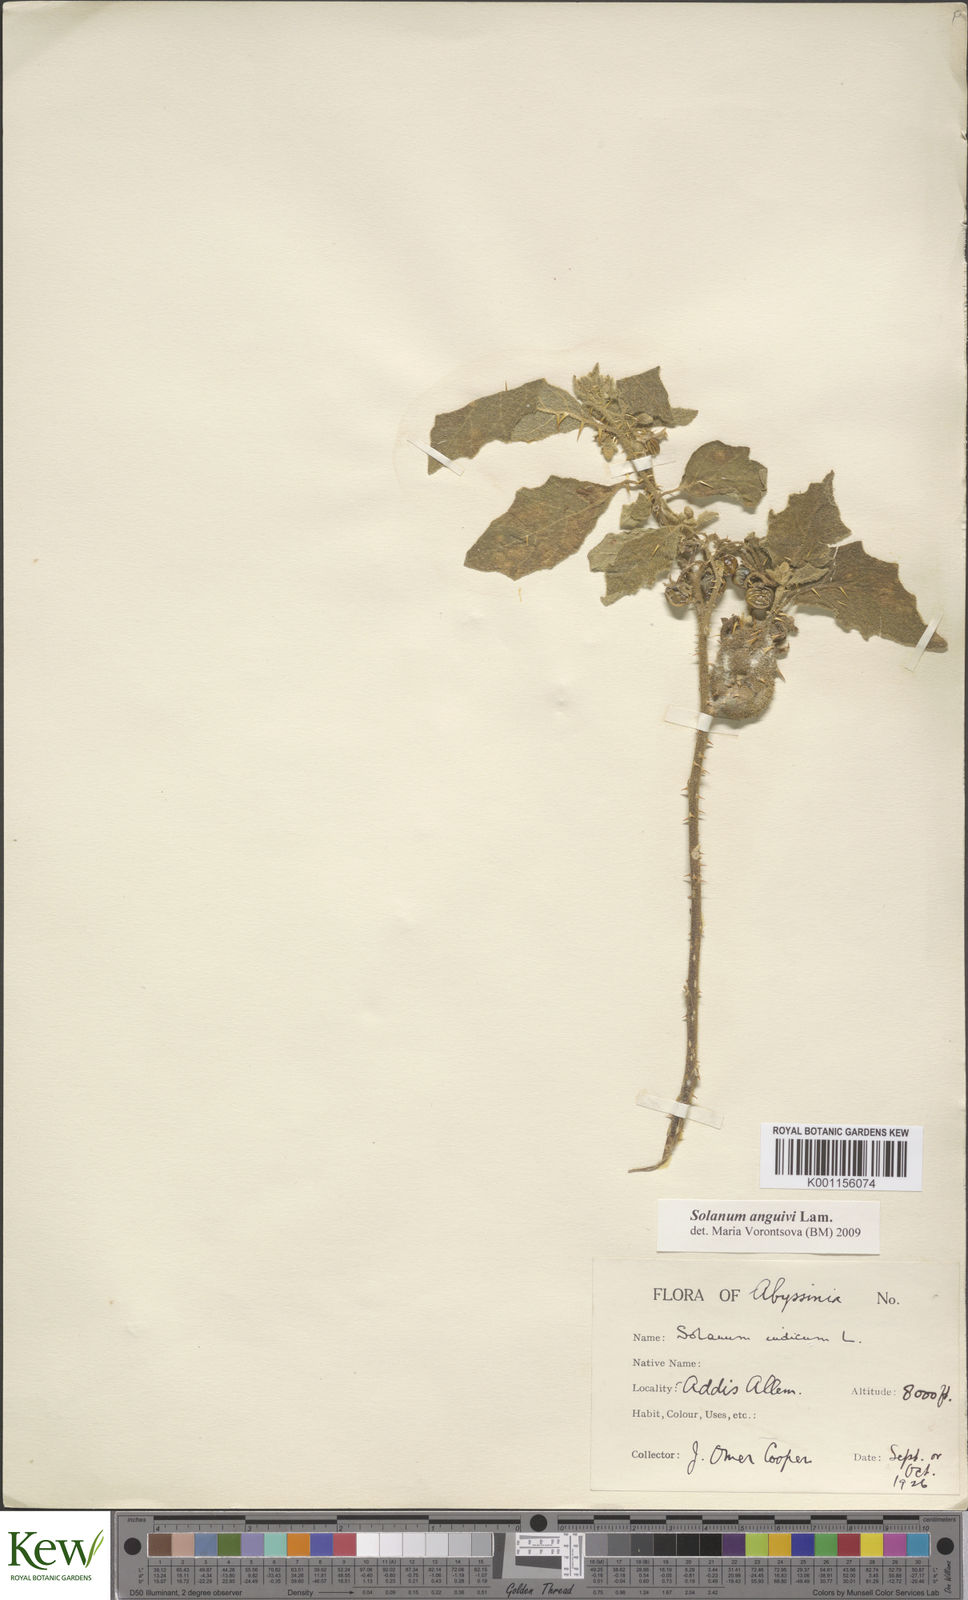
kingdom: Plantae
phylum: Tracheophyta
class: Magnoliopsida
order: Solanales
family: Solanaceae
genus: Solanum
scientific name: Solanum anguivi
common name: Forest bitterberry
